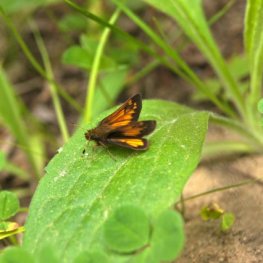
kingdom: Animalia
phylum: Arthropoda
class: Insecta
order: Lepidoptera
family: Hesperiidae
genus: Lon
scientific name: Lon hobomok
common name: Hobomok Skipper
